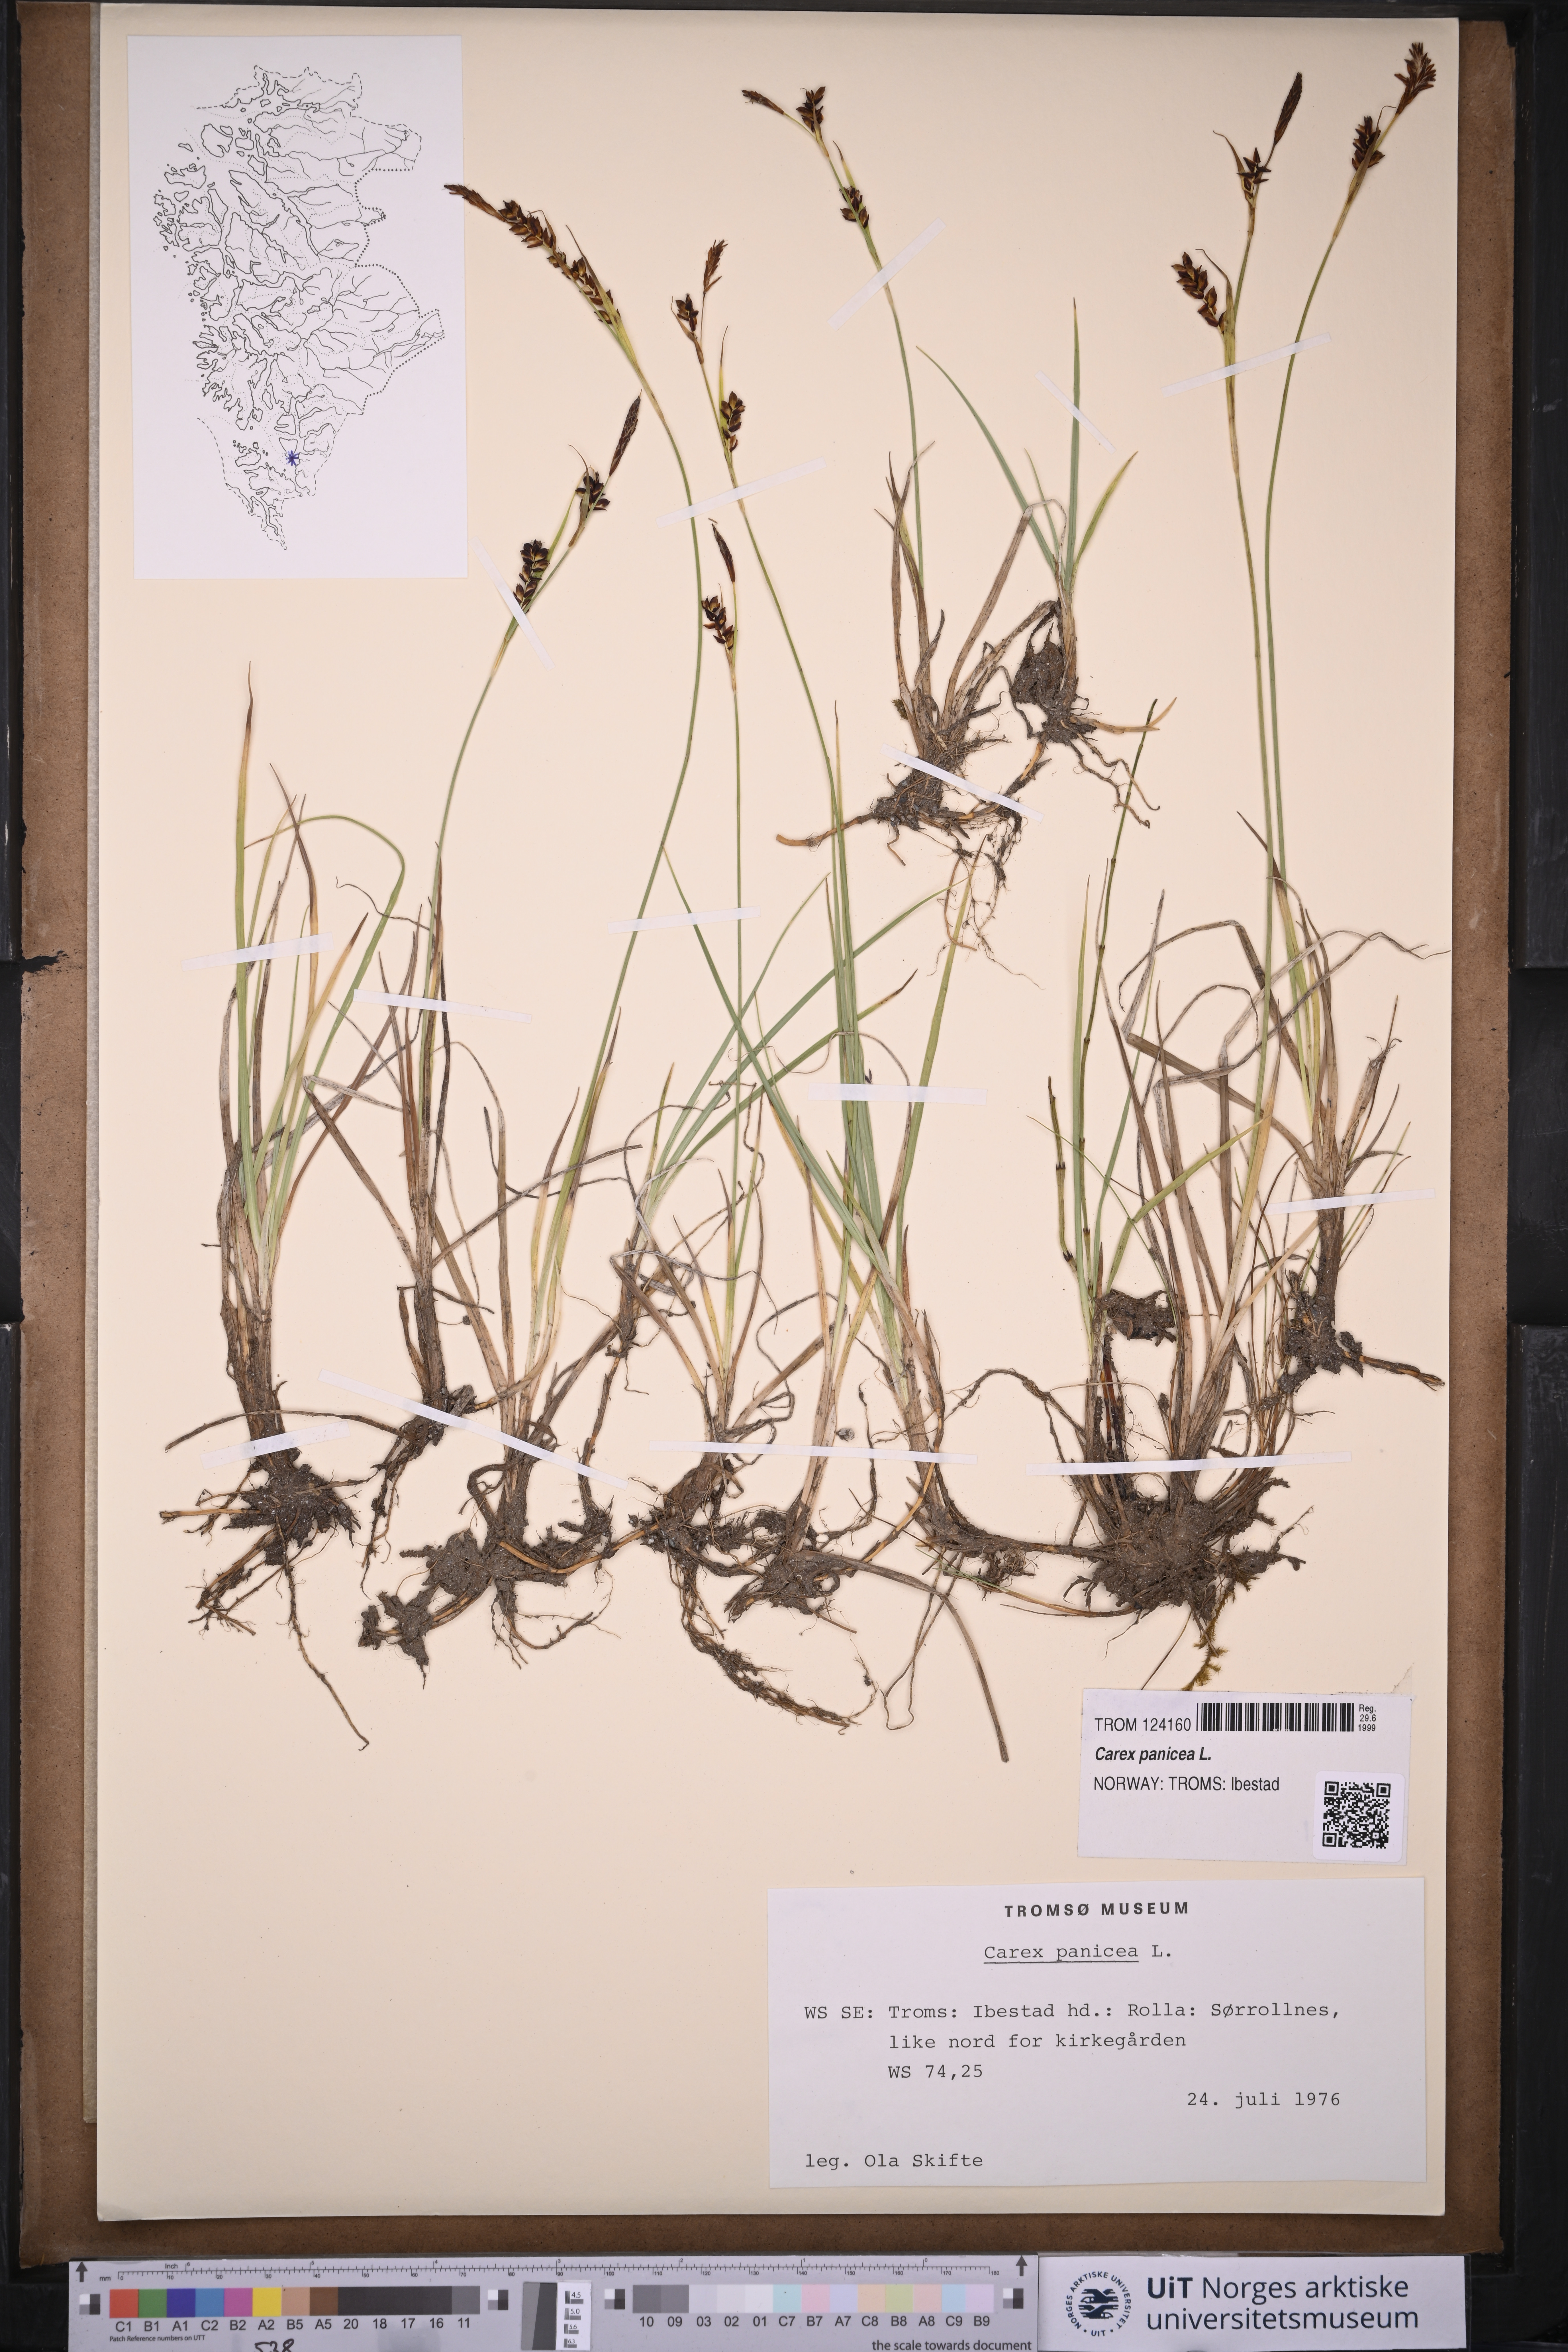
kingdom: Plantae
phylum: Tracheophyta
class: Liliopsida
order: Poales
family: Cyperaceae
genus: Carex
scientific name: Carex panicea
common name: Carnation sedge
